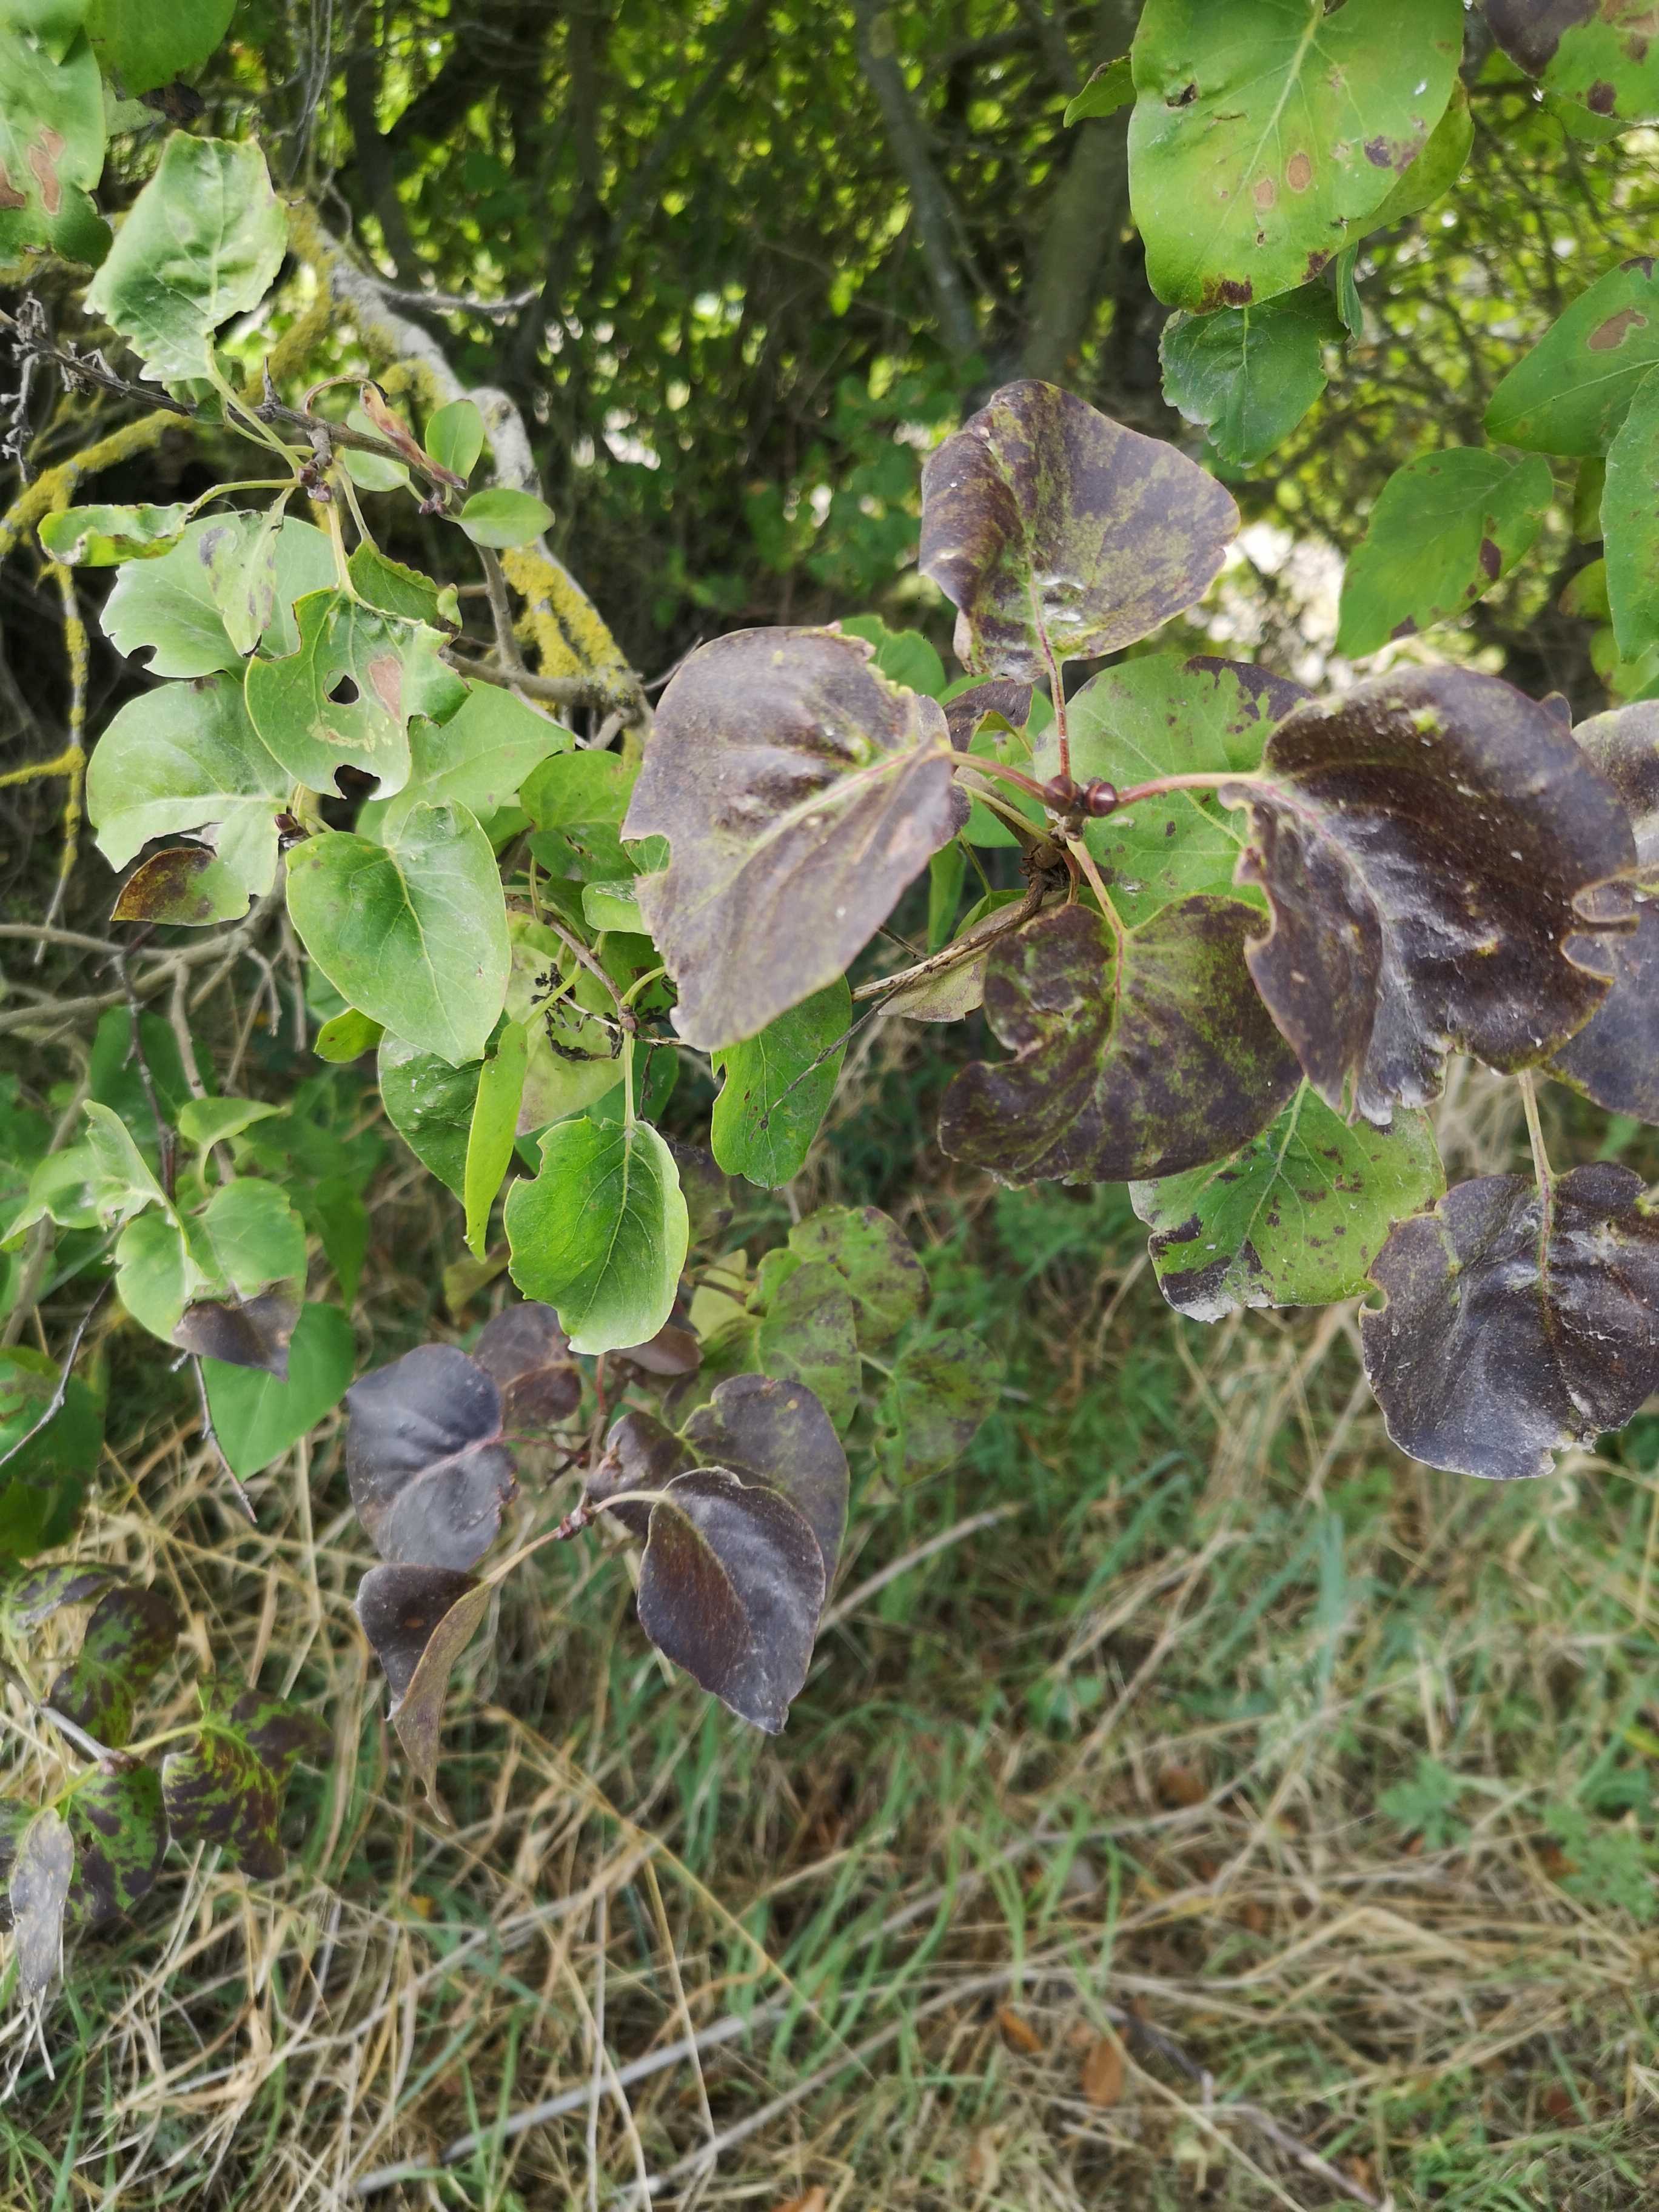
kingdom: Fungi
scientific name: Fungi
